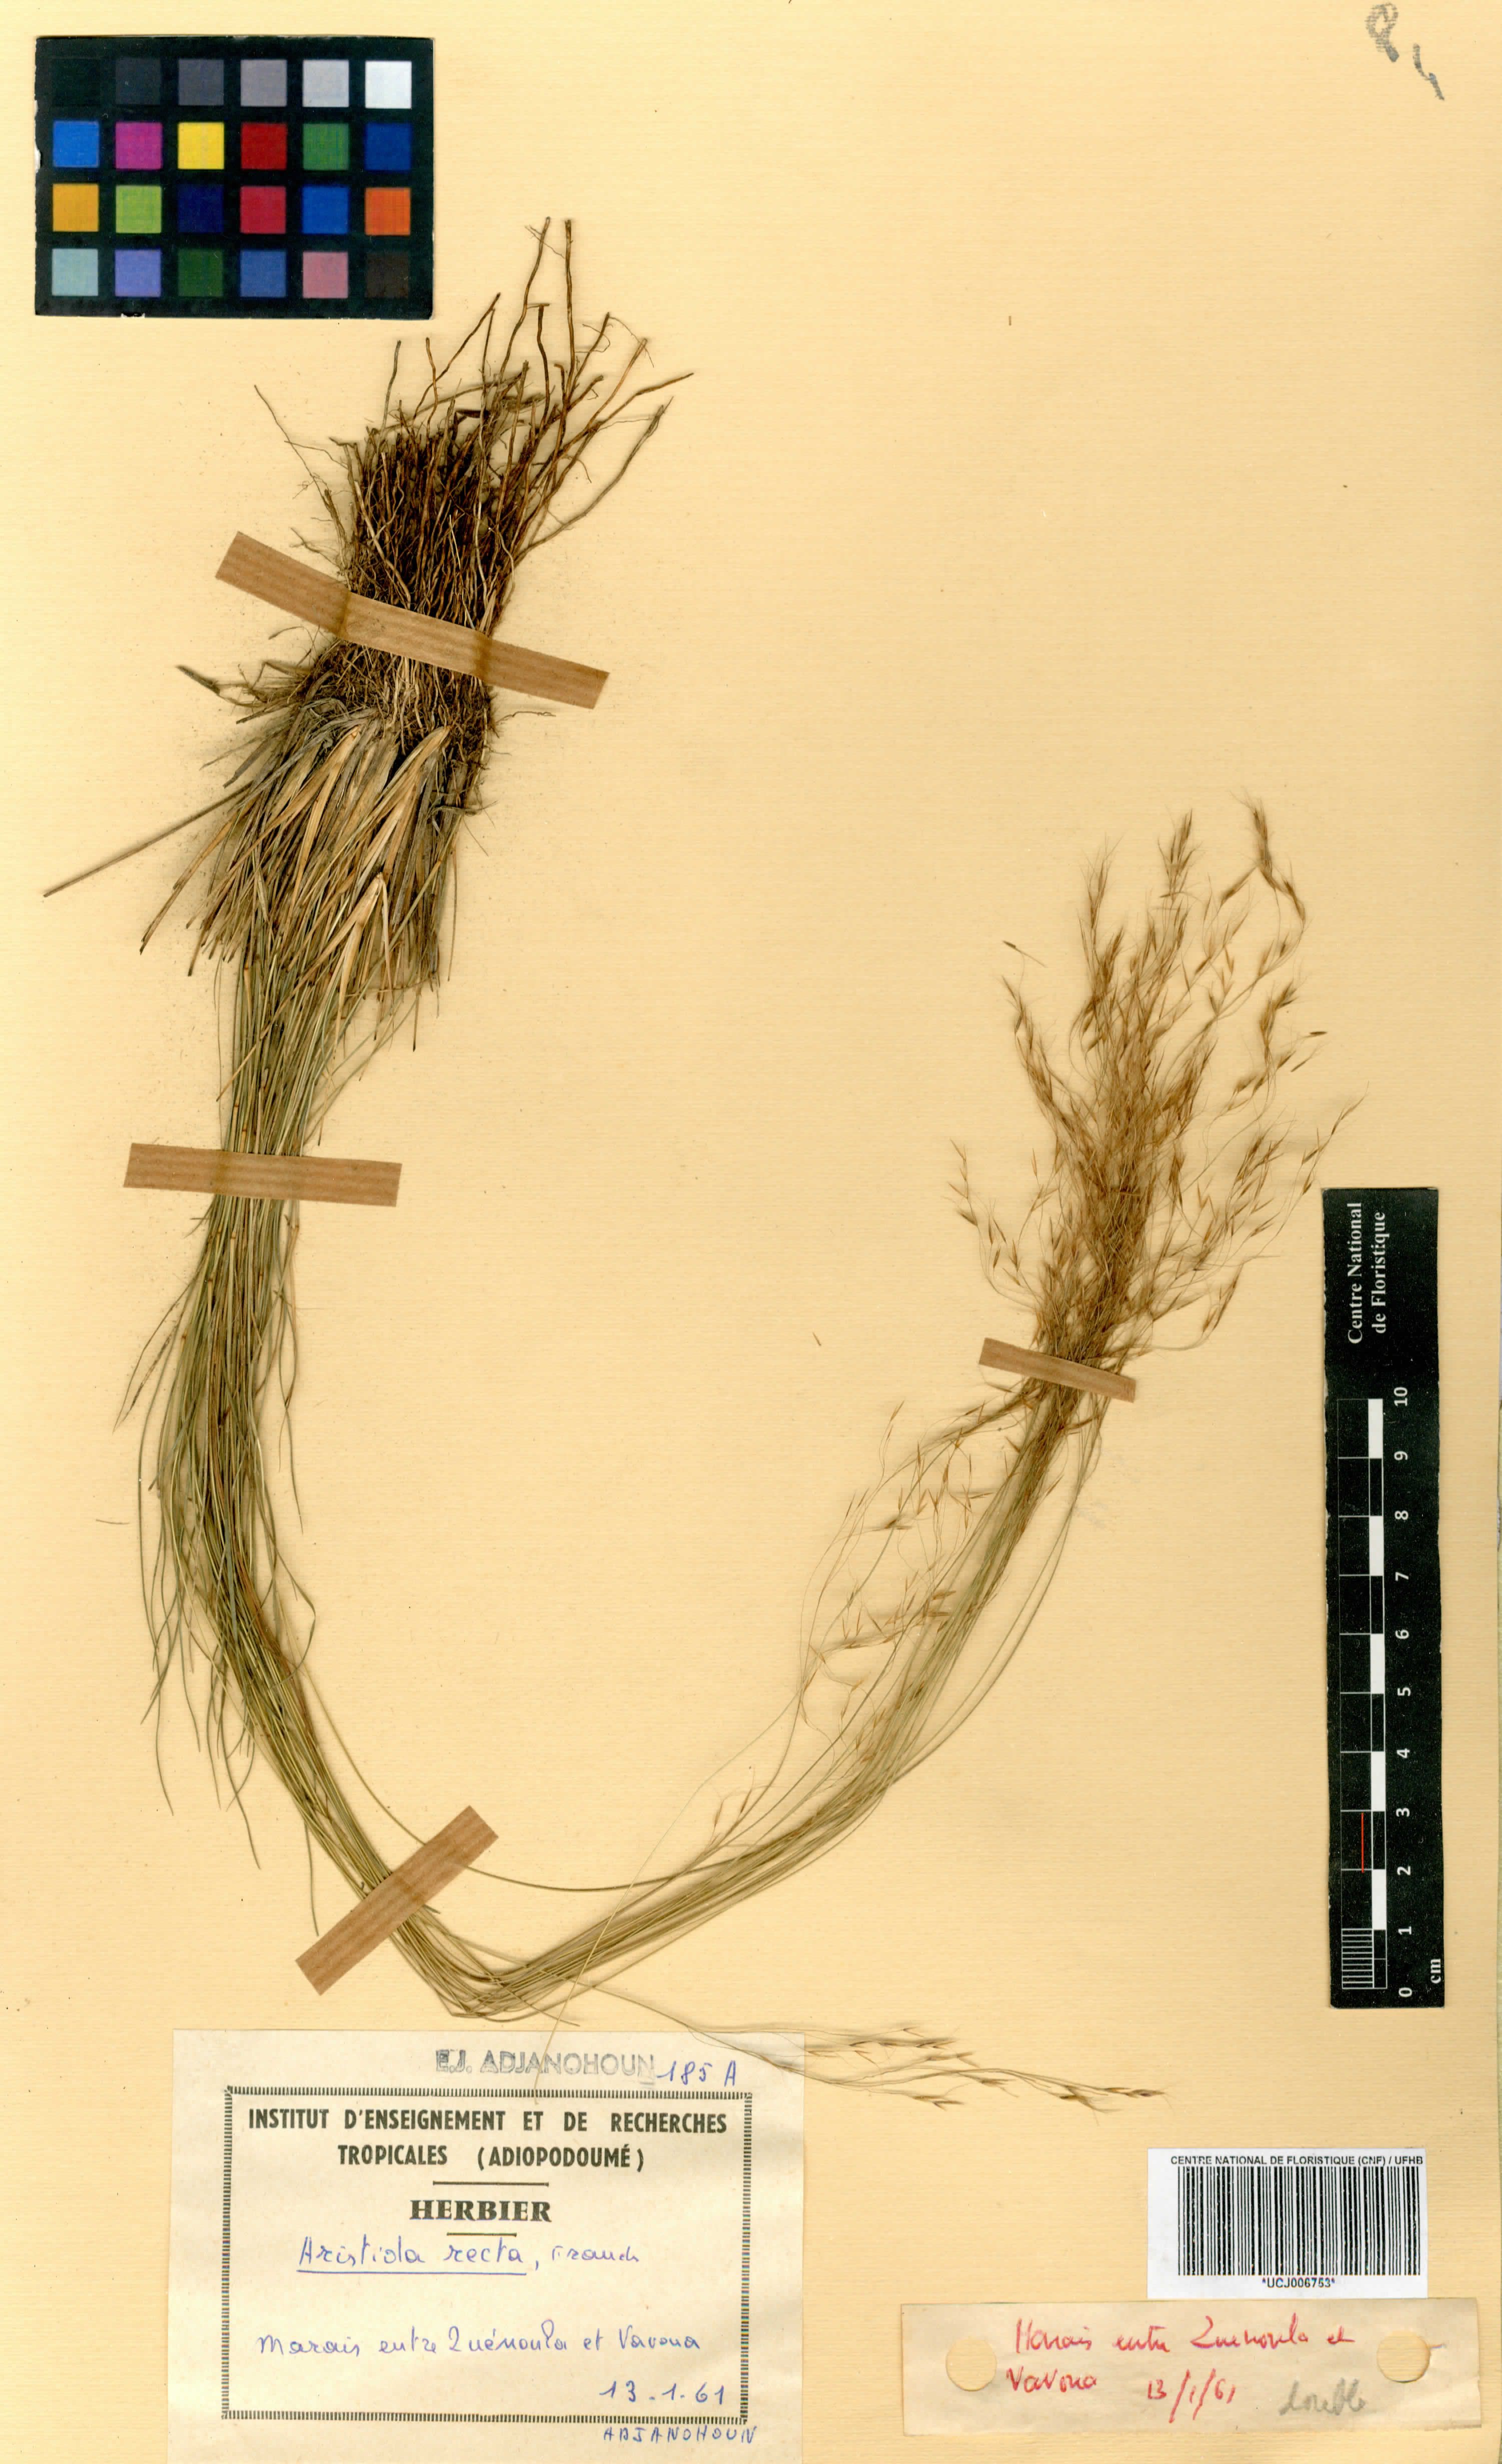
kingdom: Plantae
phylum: Tracheophyta
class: Liliopsida
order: Poales
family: Poaceae
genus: Aristida
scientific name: Aristida recta
